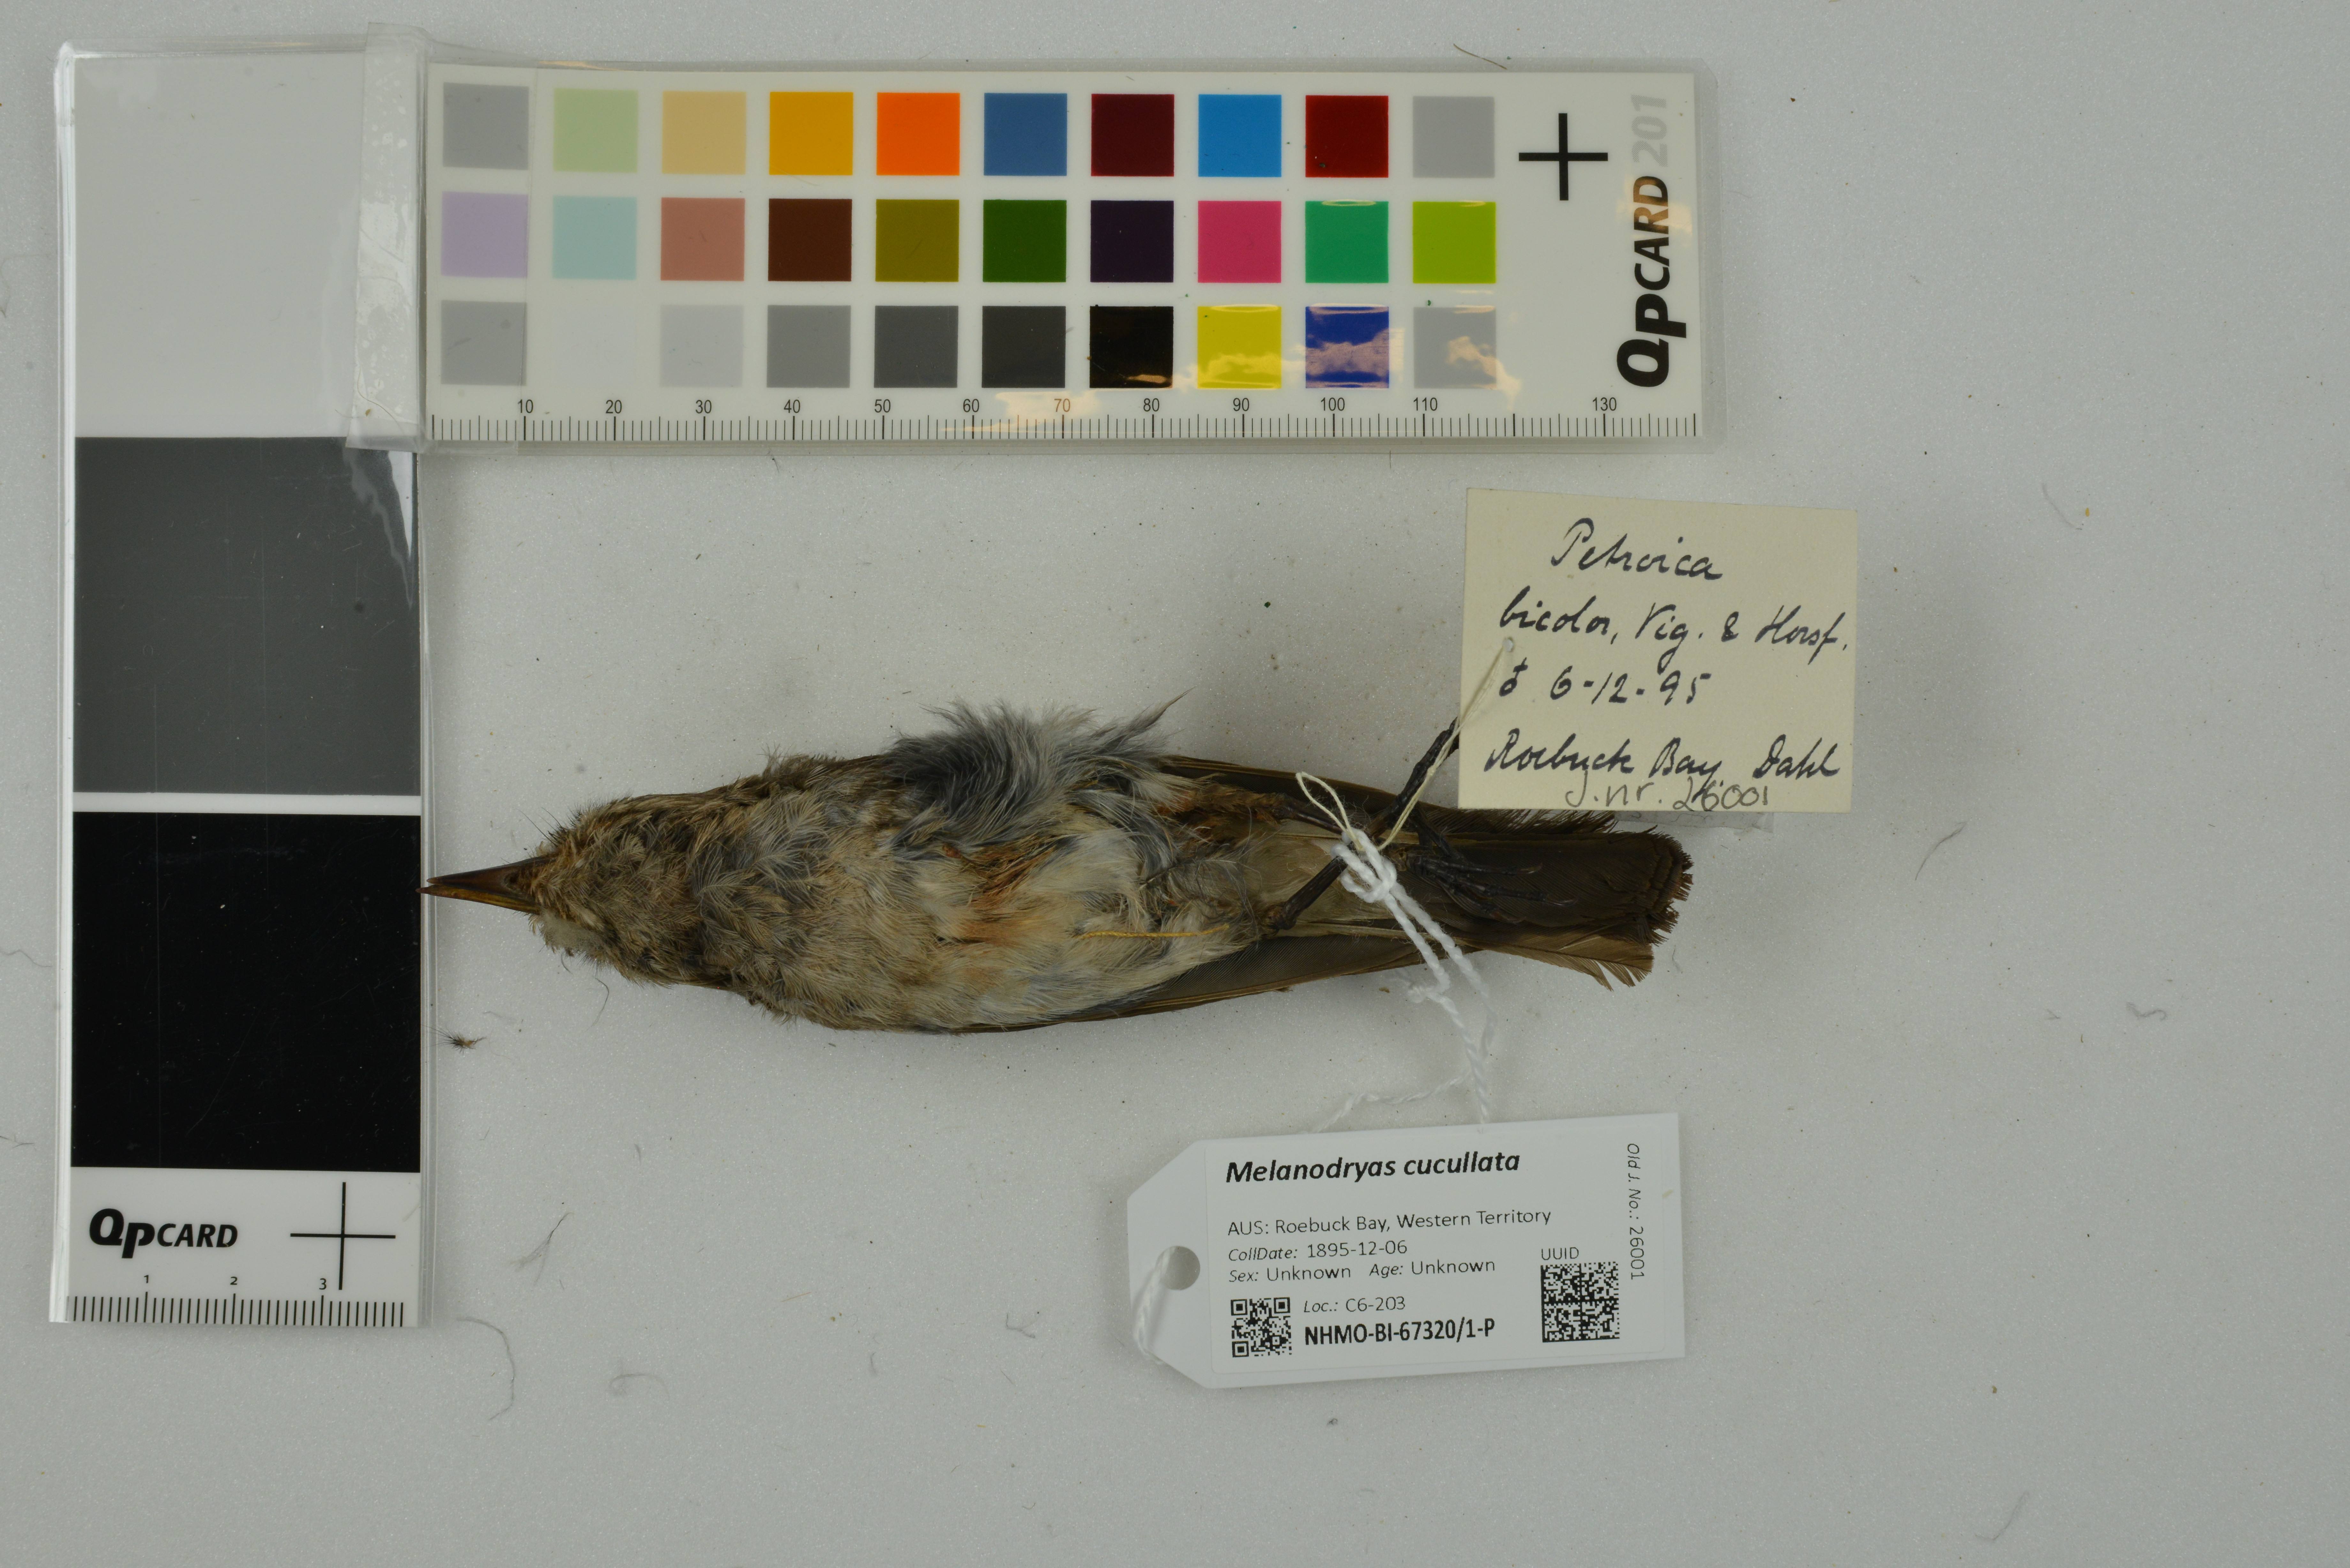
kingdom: Animalia
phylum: Chordata
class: Aves
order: Passeriformes
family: Petroicidae
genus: Melanodryas
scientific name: Melanodryas cucullata
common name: Hooded robin
